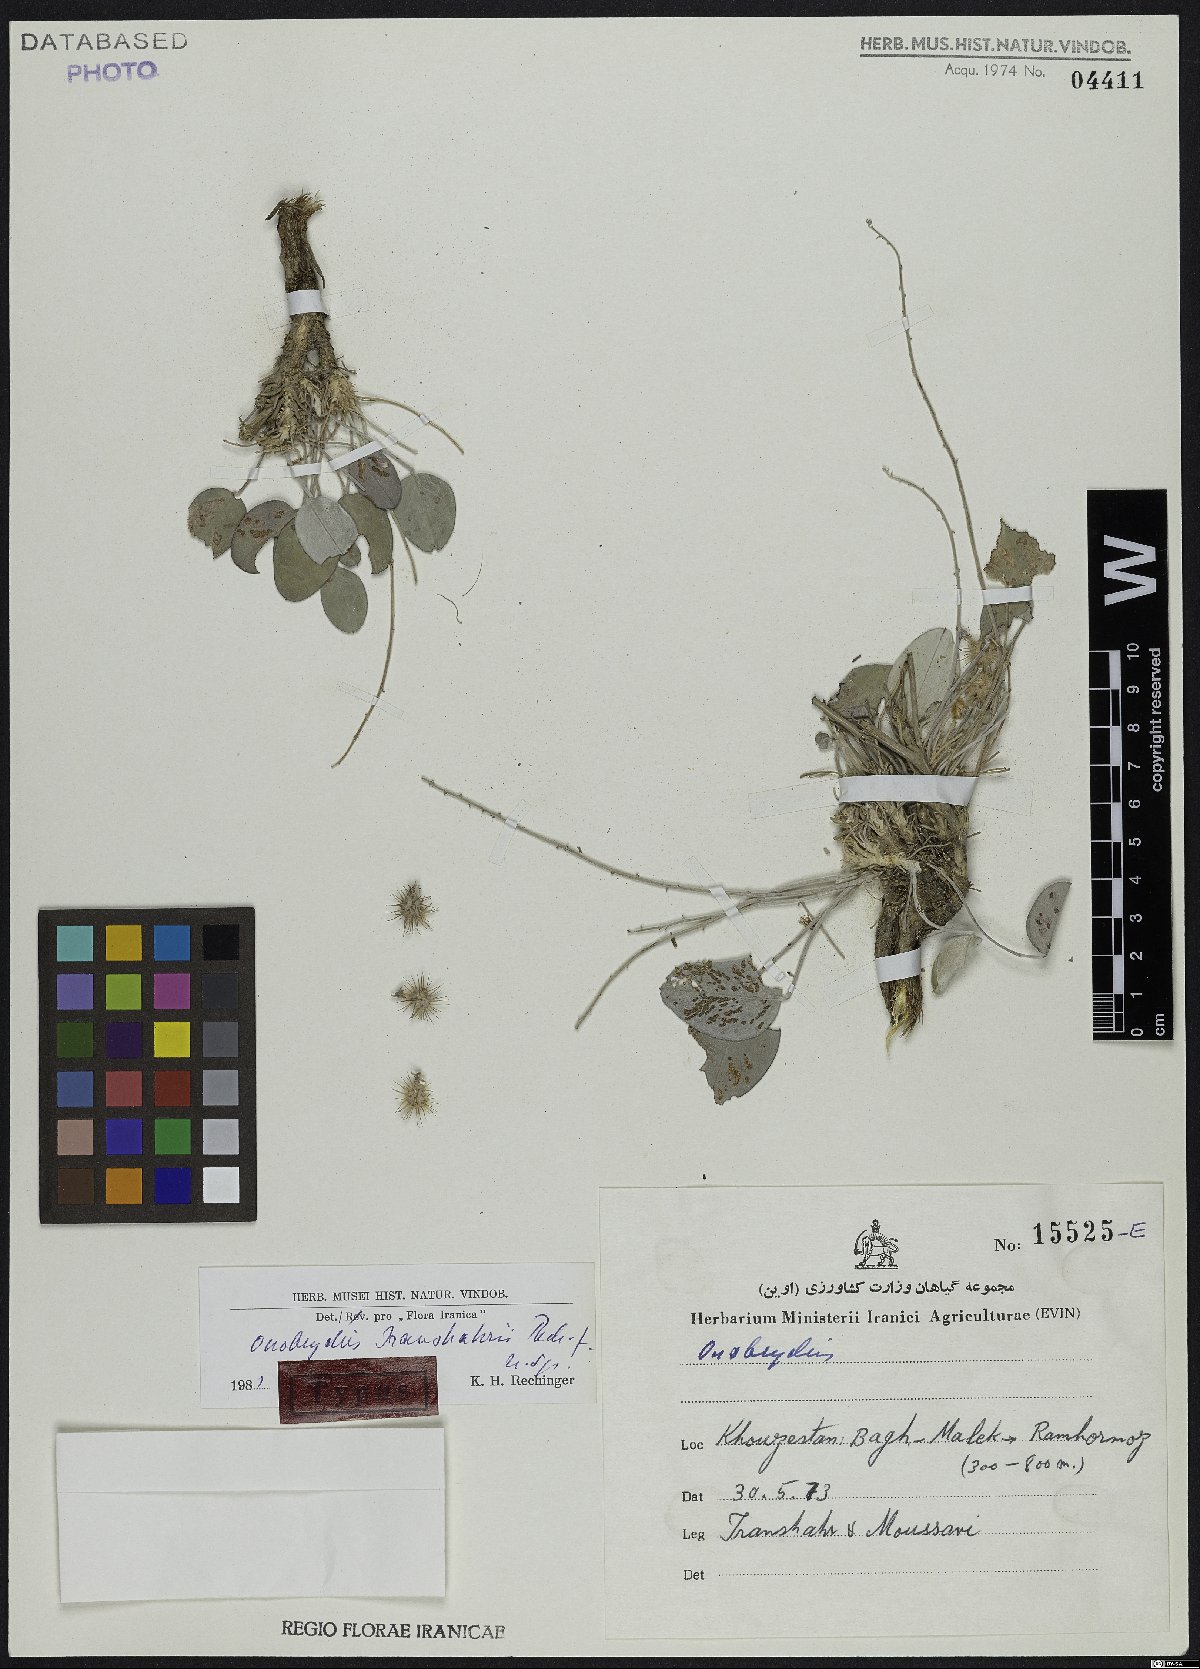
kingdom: Plantae
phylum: Tracheophyta
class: Magnoliopsida
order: Fabales
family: Fabaceae
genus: Onobrychis
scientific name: Onobrychis iranshahrii
